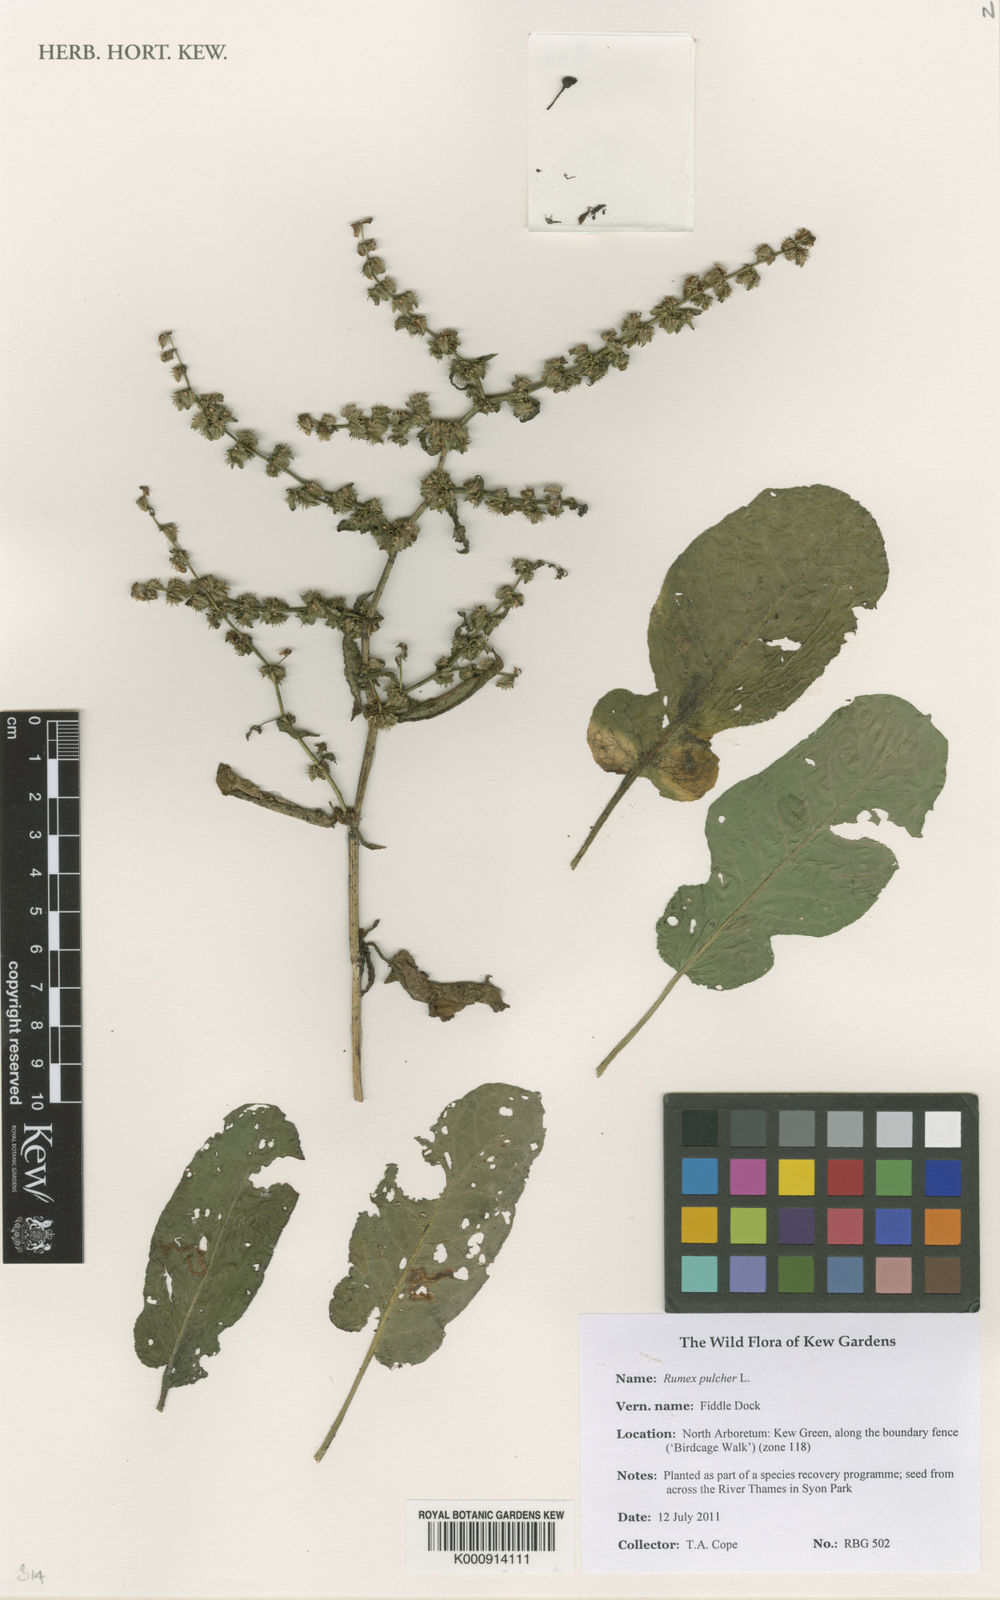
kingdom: Plantae
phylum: Tracheophyta
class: Magnoliopsida
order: Caryophyllales
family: Polygonaceae
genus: Rumex
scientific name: Rumex pulcher
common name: Fiddle dock
